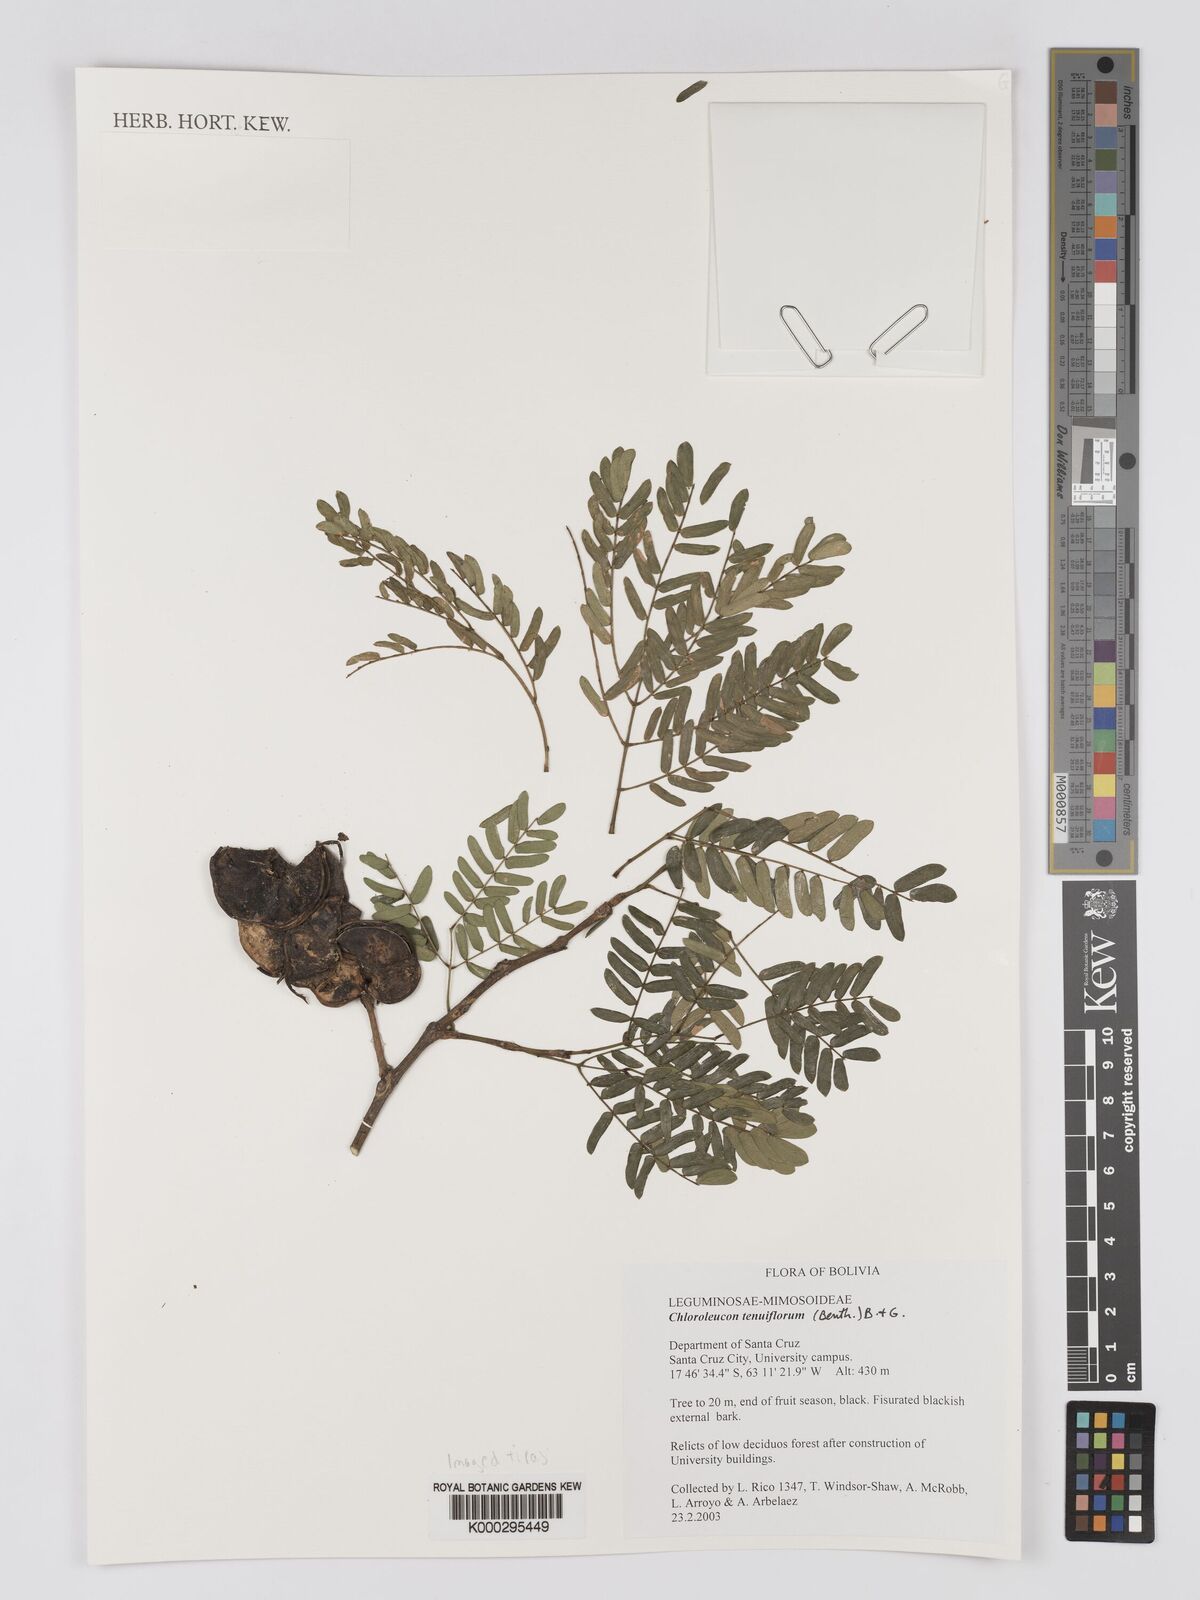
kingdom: Plantae
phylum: Tracheophyta
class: Magnoliopsida
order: Fabales
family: Fabaceae
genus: Chloroleucon
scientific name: Chloroleucon tenuiflorum
